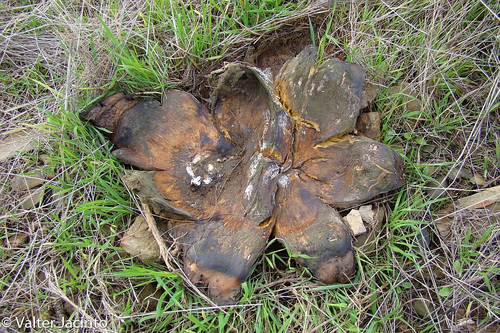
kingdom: Fungi
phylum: Basidiomycota
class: Agaricomycetes
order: Boletales
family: Sclerodermataceae
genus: Scleroderma
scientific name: Scleroderma polyrhizum
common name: Many-rooted earthball
